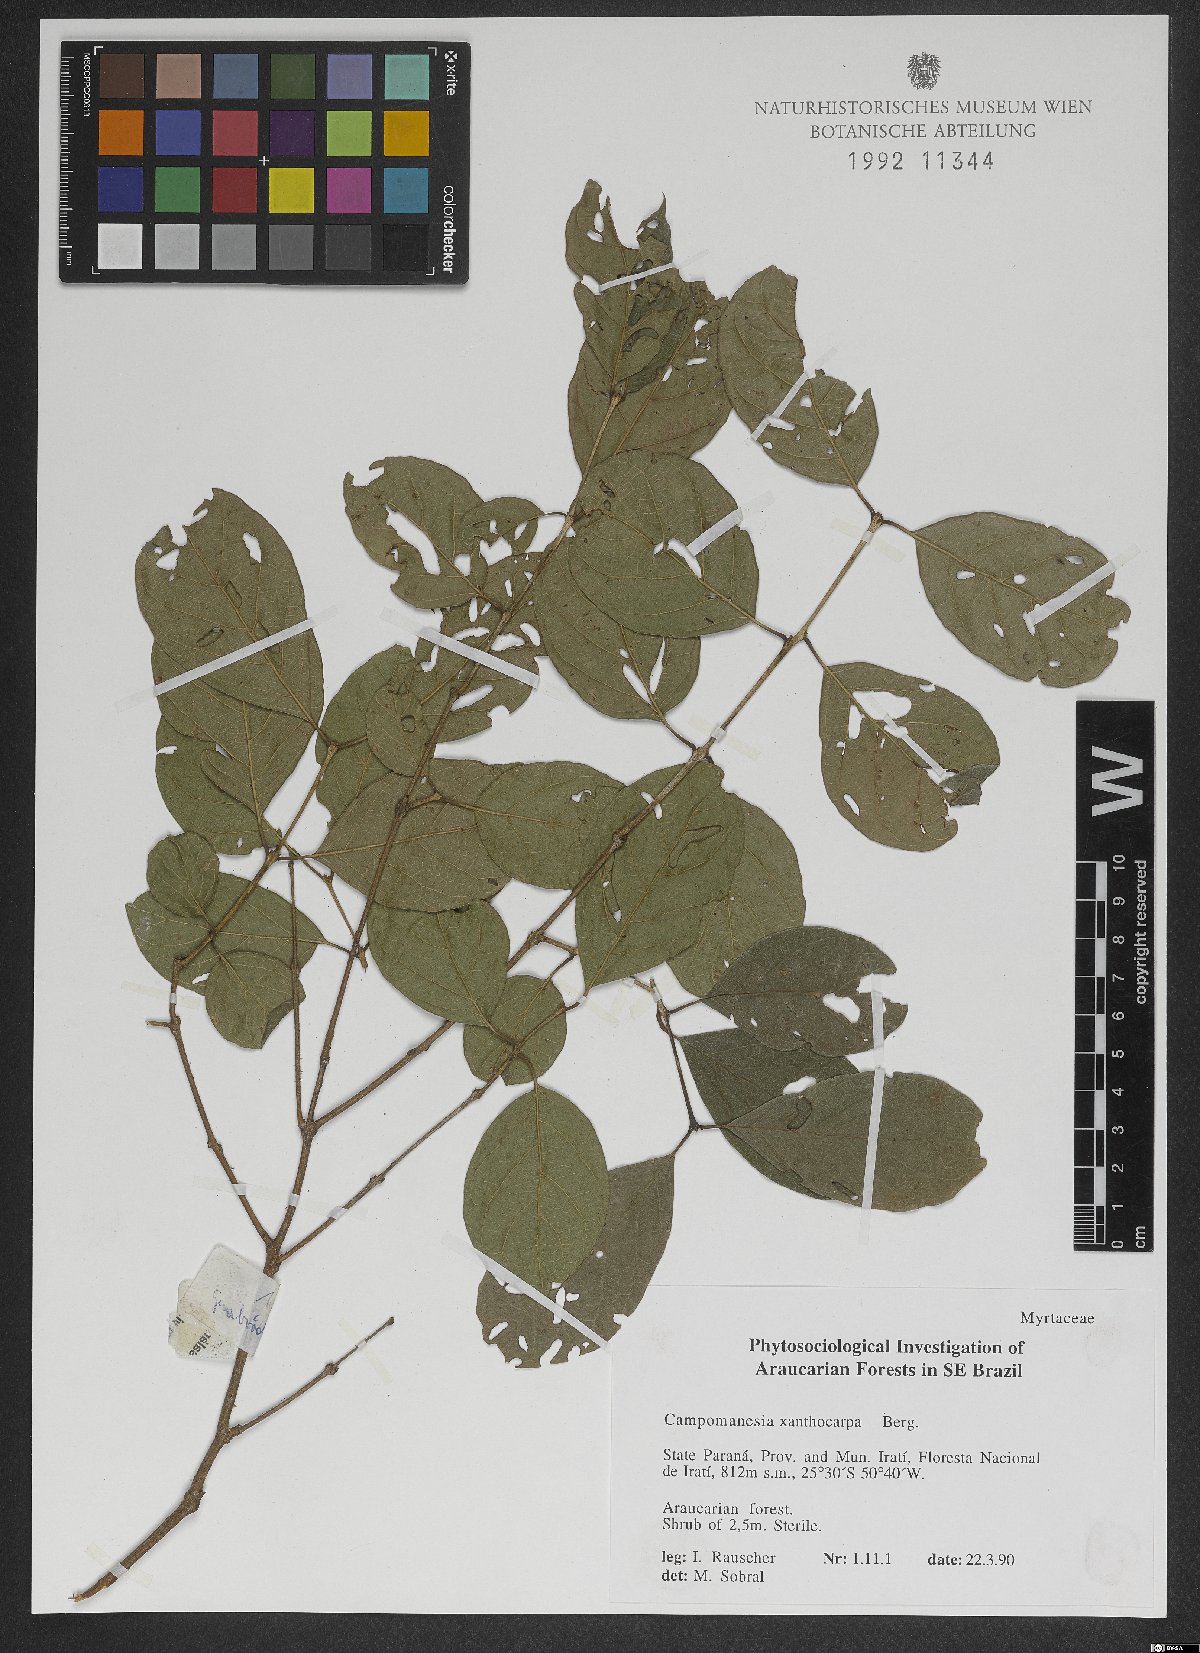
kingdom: Plantae
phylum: Tracheophyta
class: Magnoliopsida
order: Myrtales
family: Myrtaceae
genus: Campomanesia
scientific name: Campomanesia xanthocarpa
